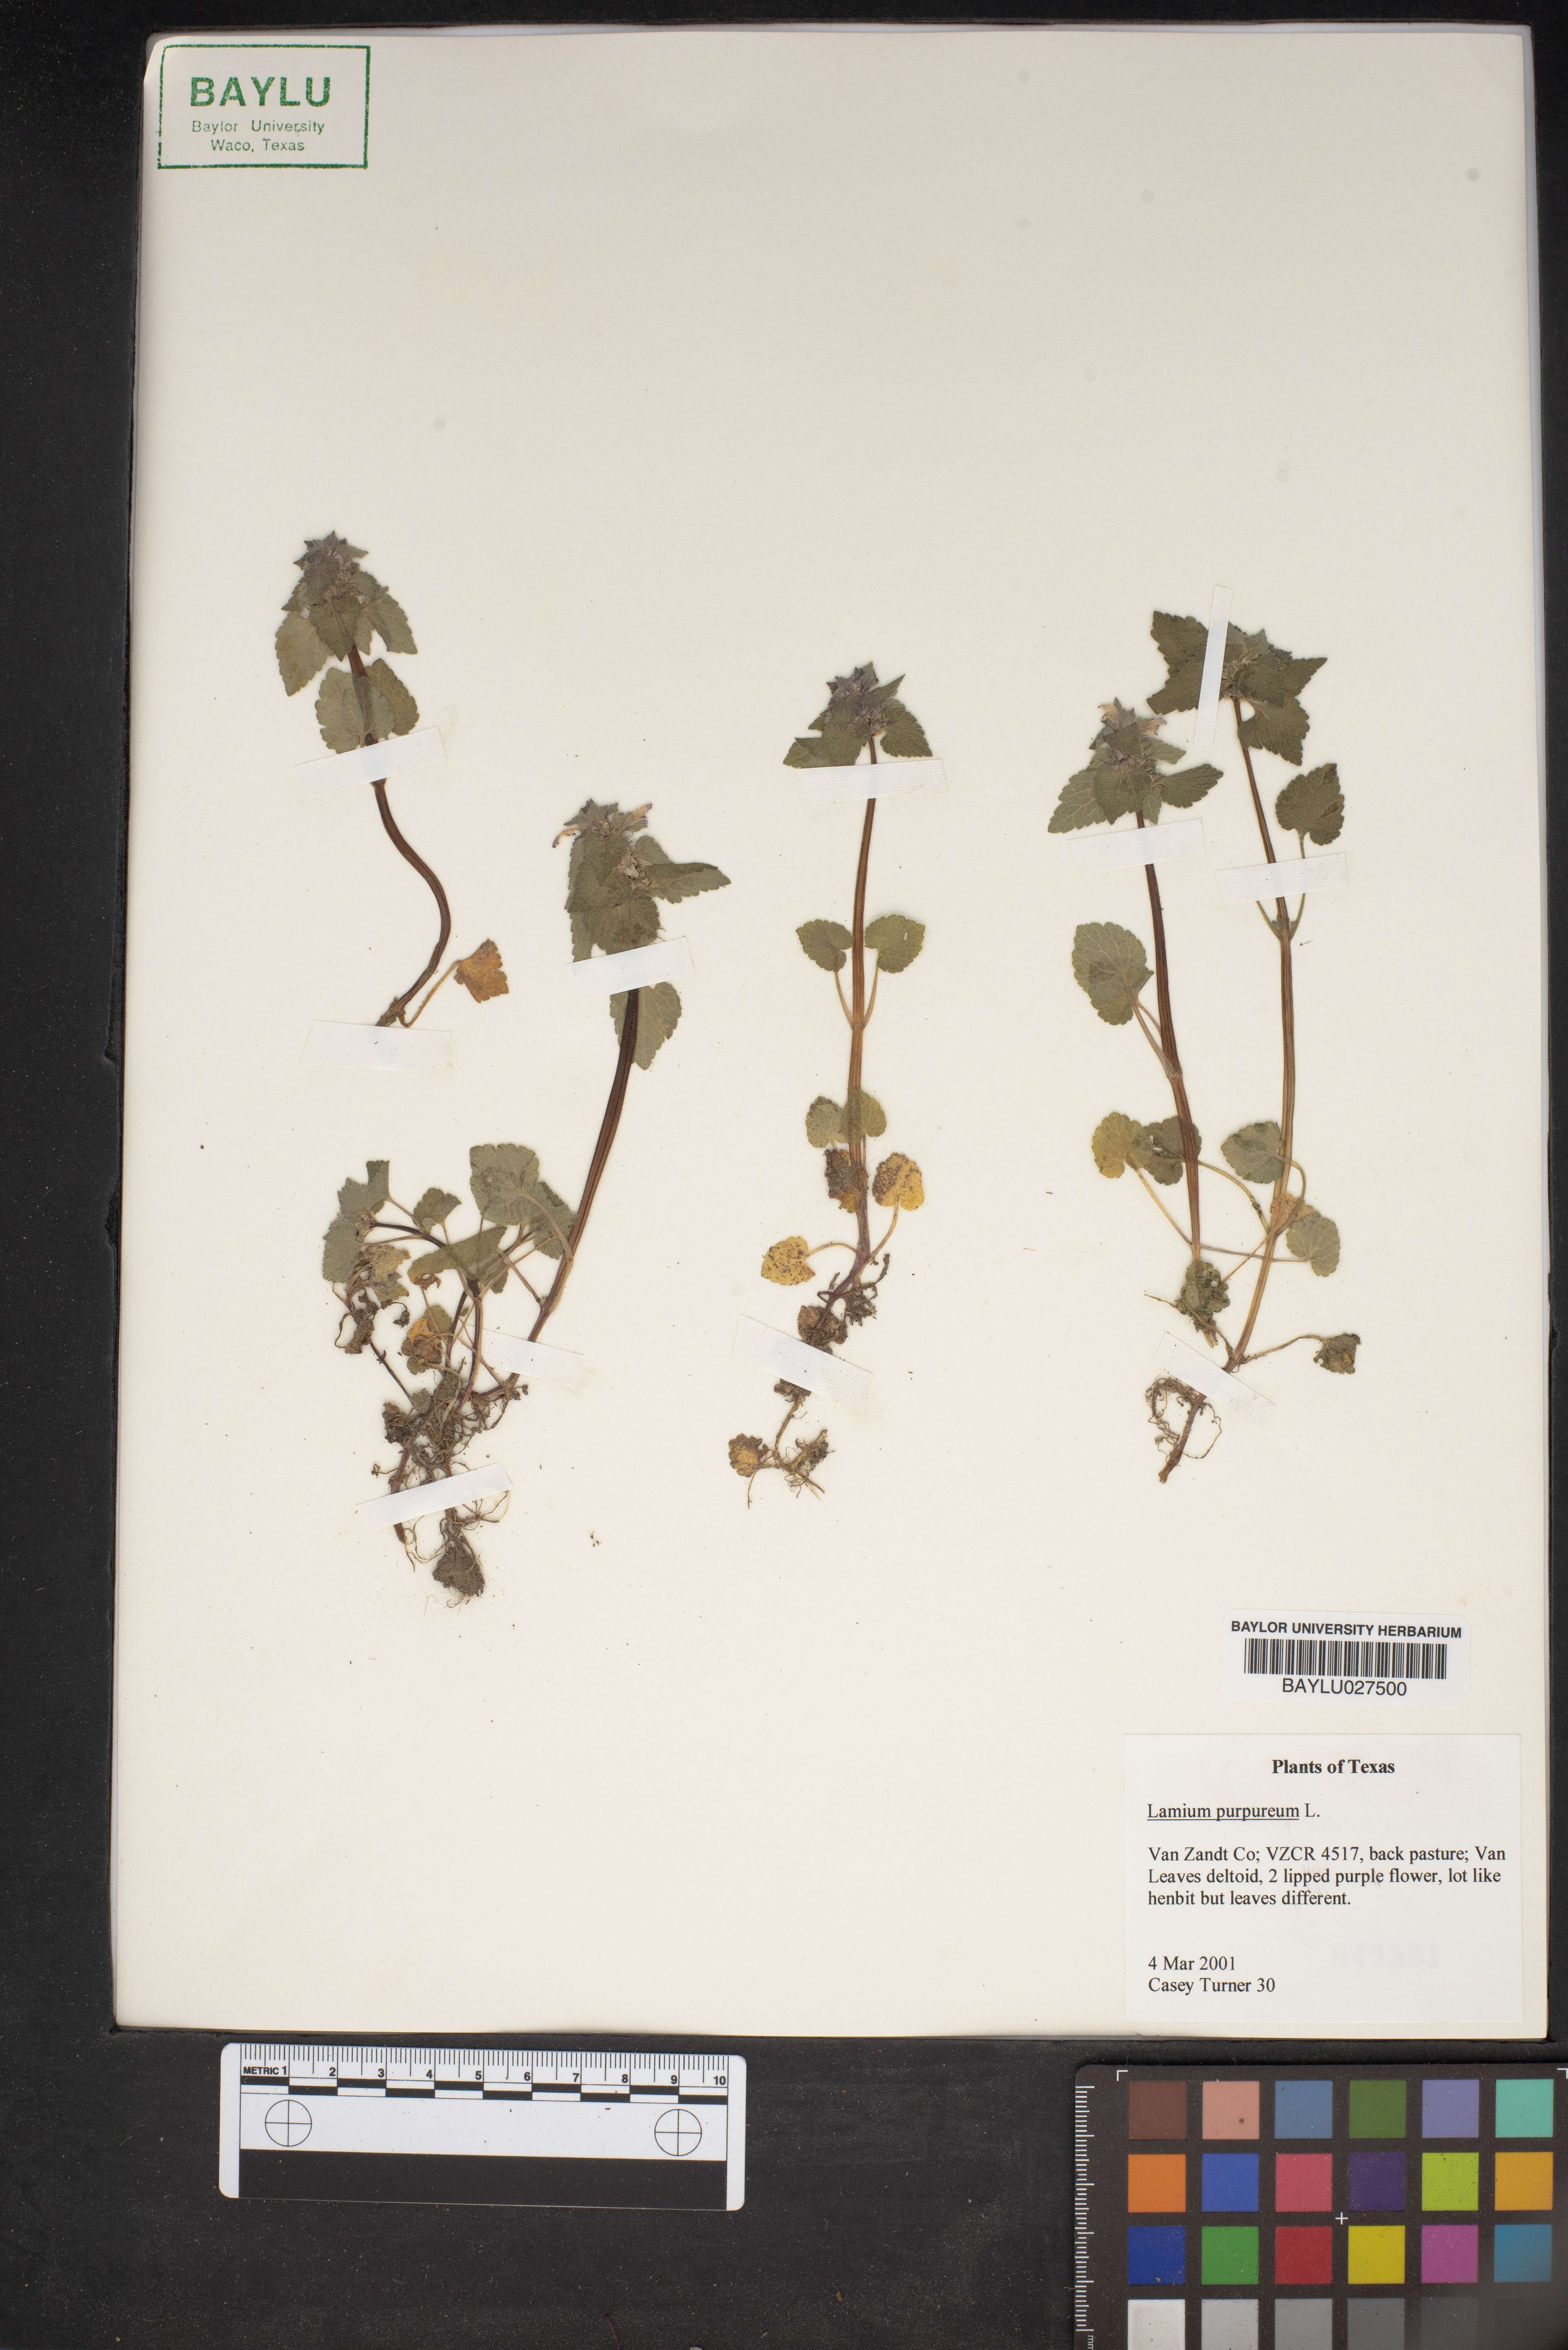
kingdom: Plantae
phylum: Tracheophyta
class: Magnoliopsida
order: Lamiales
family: Lamiaceae
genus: Lamium
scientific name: Lamium purpureum
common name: Red dead-nettle
